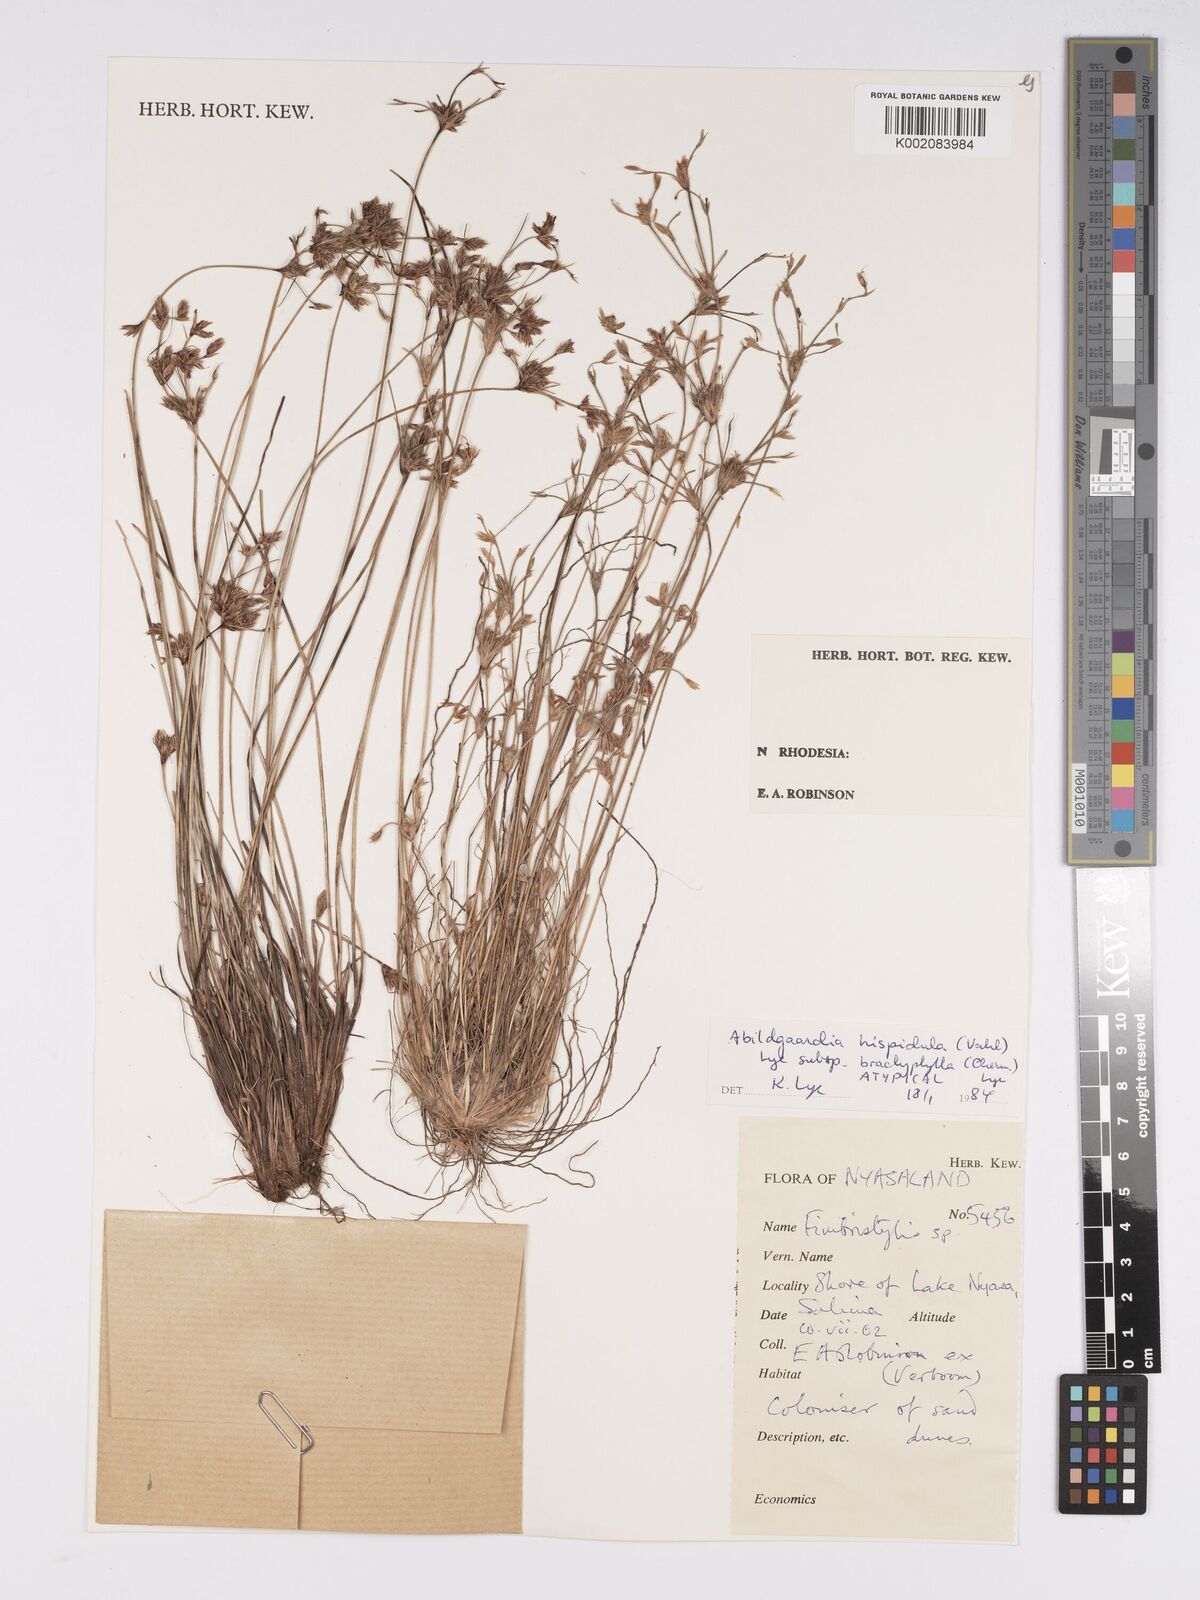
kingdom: Plantae
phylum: Tracheophyta
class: Liliopsida
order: Poales
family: Cyperaceae
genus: Bulbostylis
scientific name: Bulbostylis hispidula
